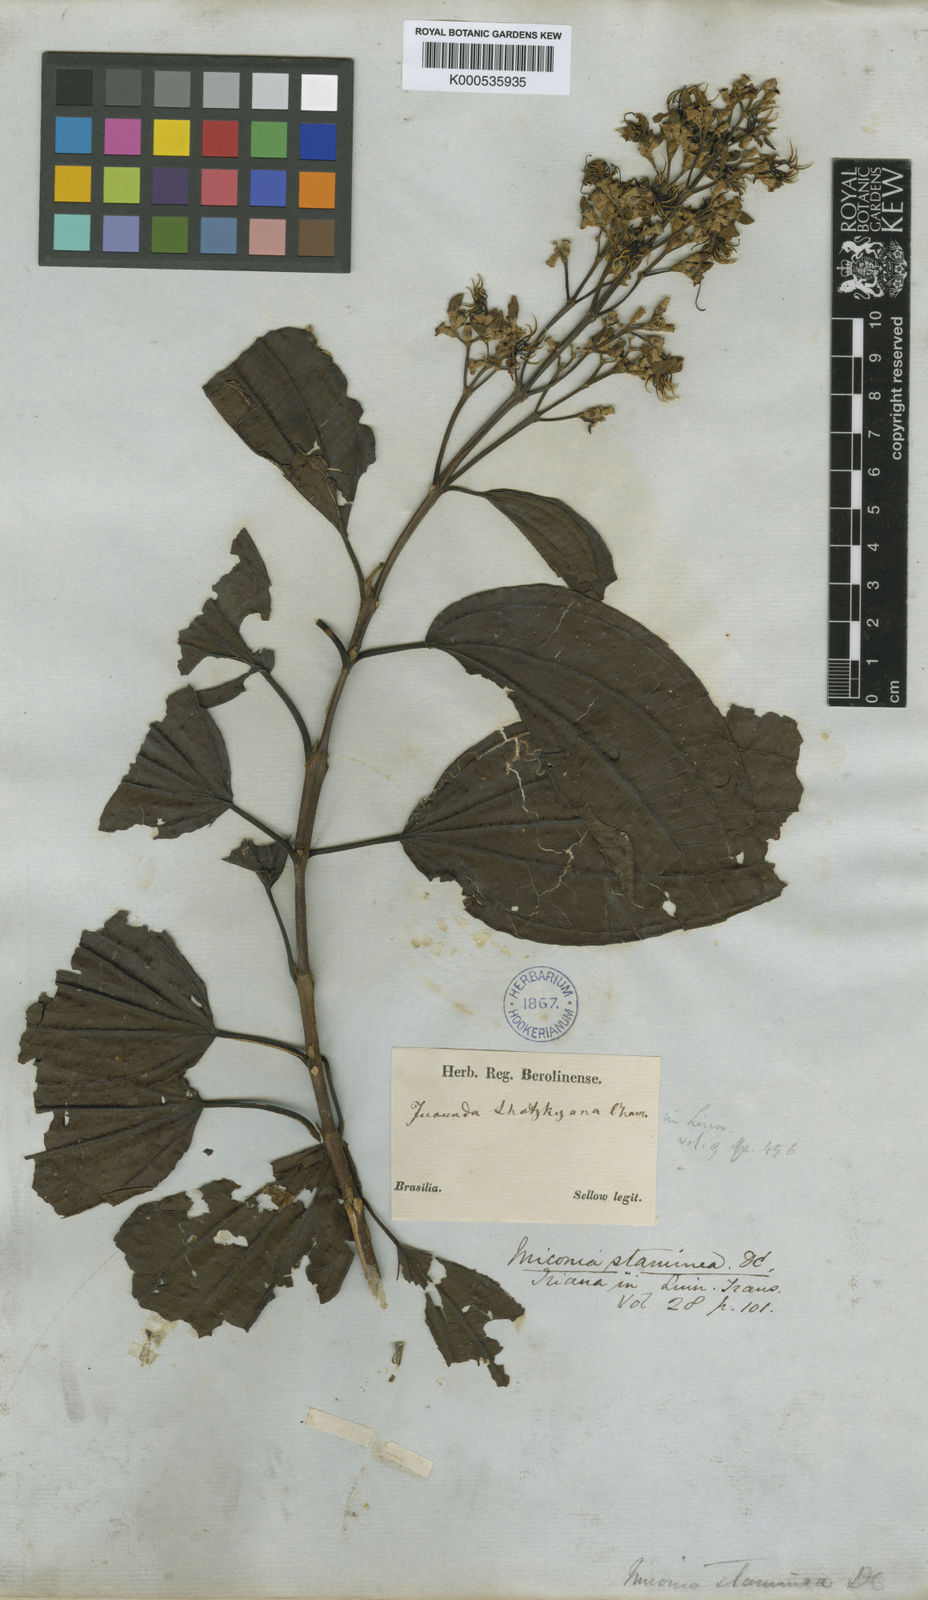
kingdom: Plantae
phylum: Tracheophyta
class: Magnoliopsida
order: Myrtales
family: Melastomataceae
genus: Miconia
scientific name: Miconia staminea
